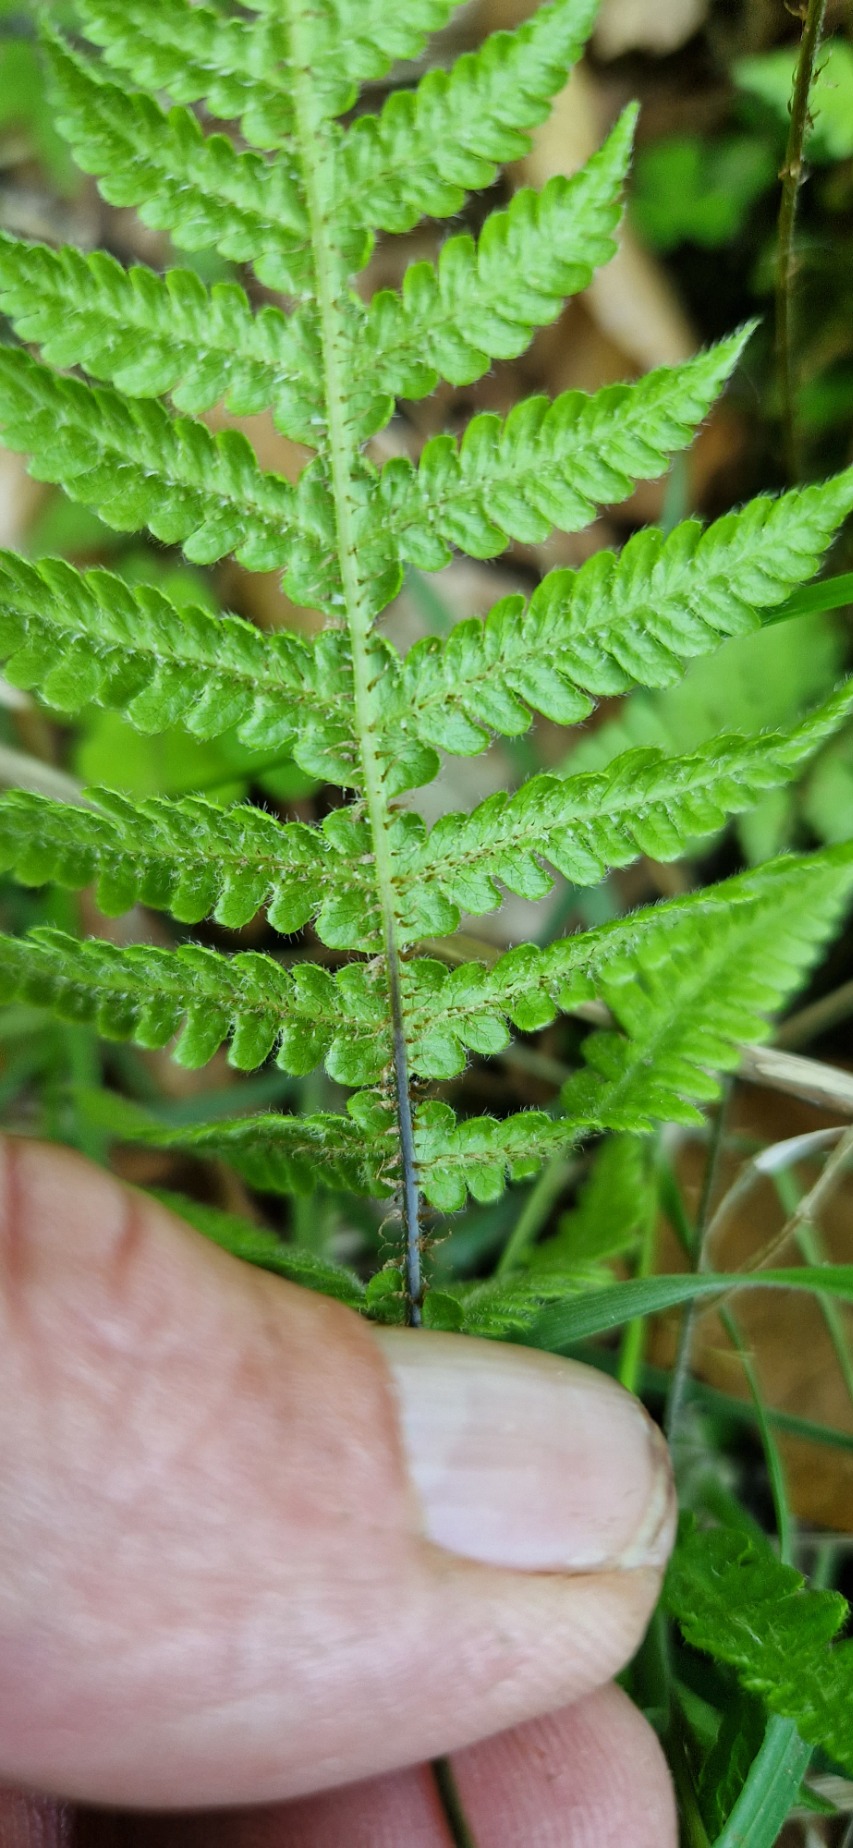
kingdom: Plantae
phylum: Tracheophyta
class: Polypodiopsida
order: Polypodiales
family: Thelypteridaceae
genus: Phegopteris
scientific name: Phegopteris connectilis
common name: Dunet egebregne
